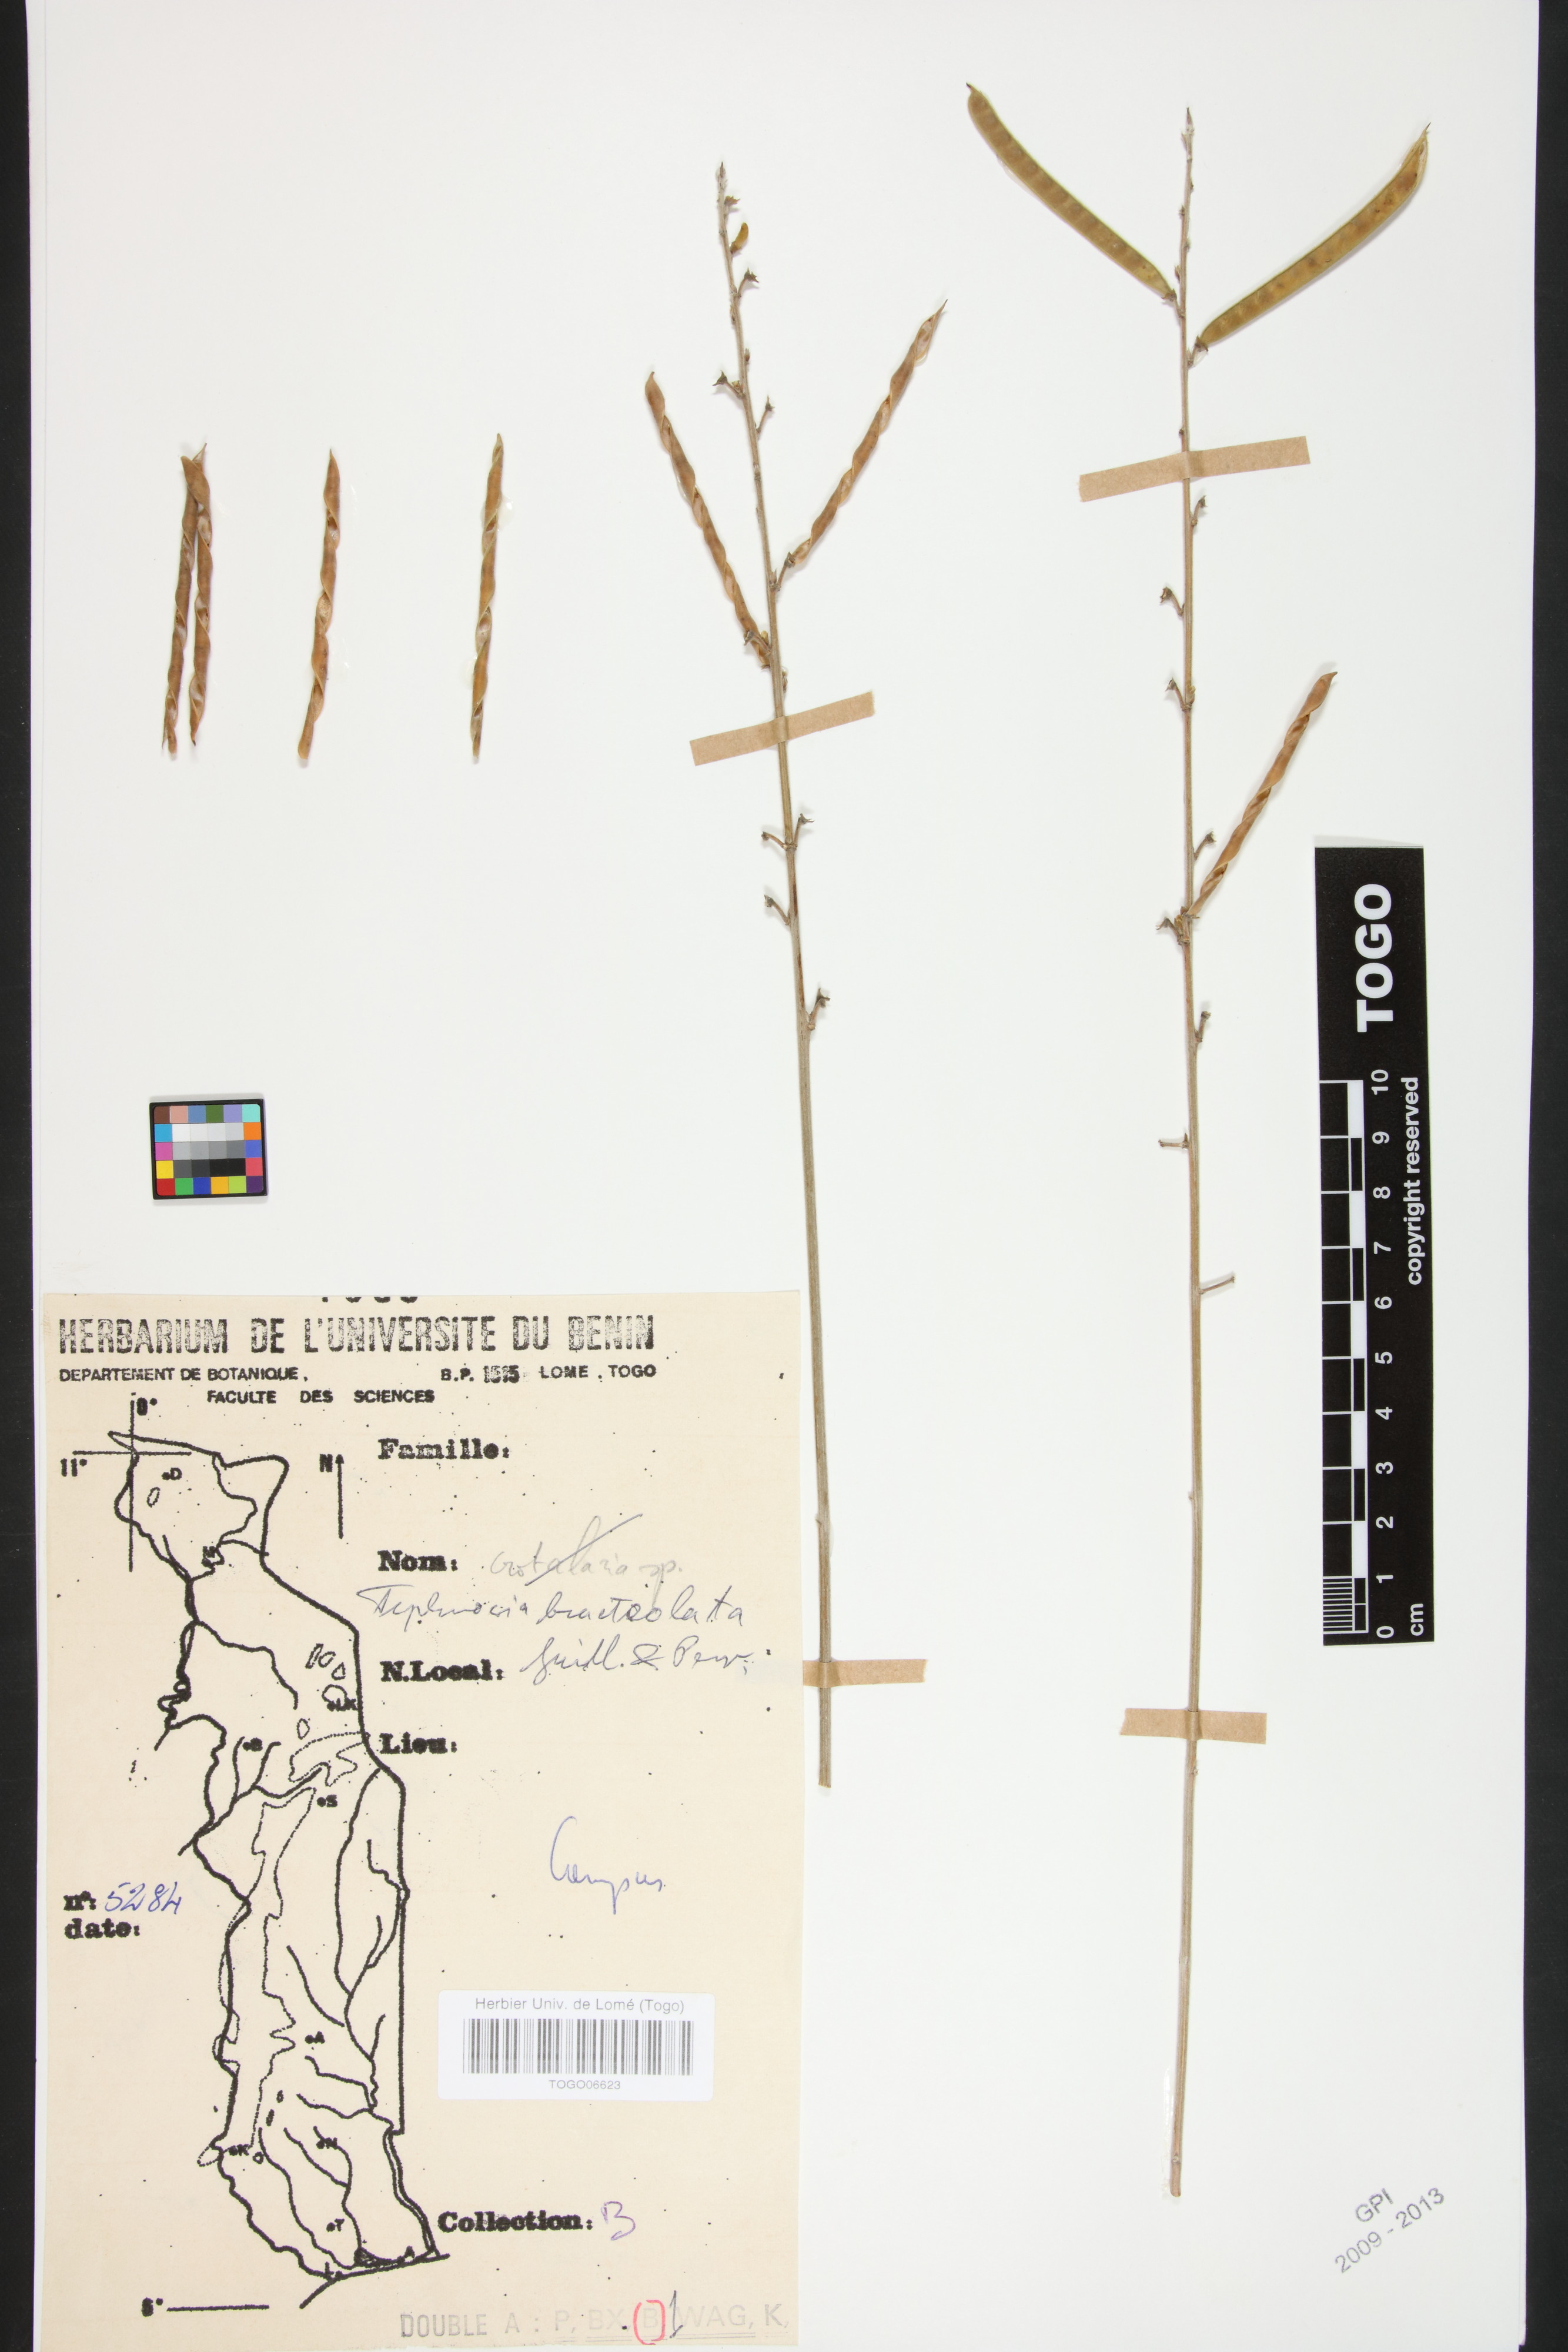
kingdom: Plantae
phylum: Tracheophyta
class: Magnoliopsida
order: Fabales
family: Fabaceae
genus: Tephrosia
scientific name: Tephrosia bracteolata
